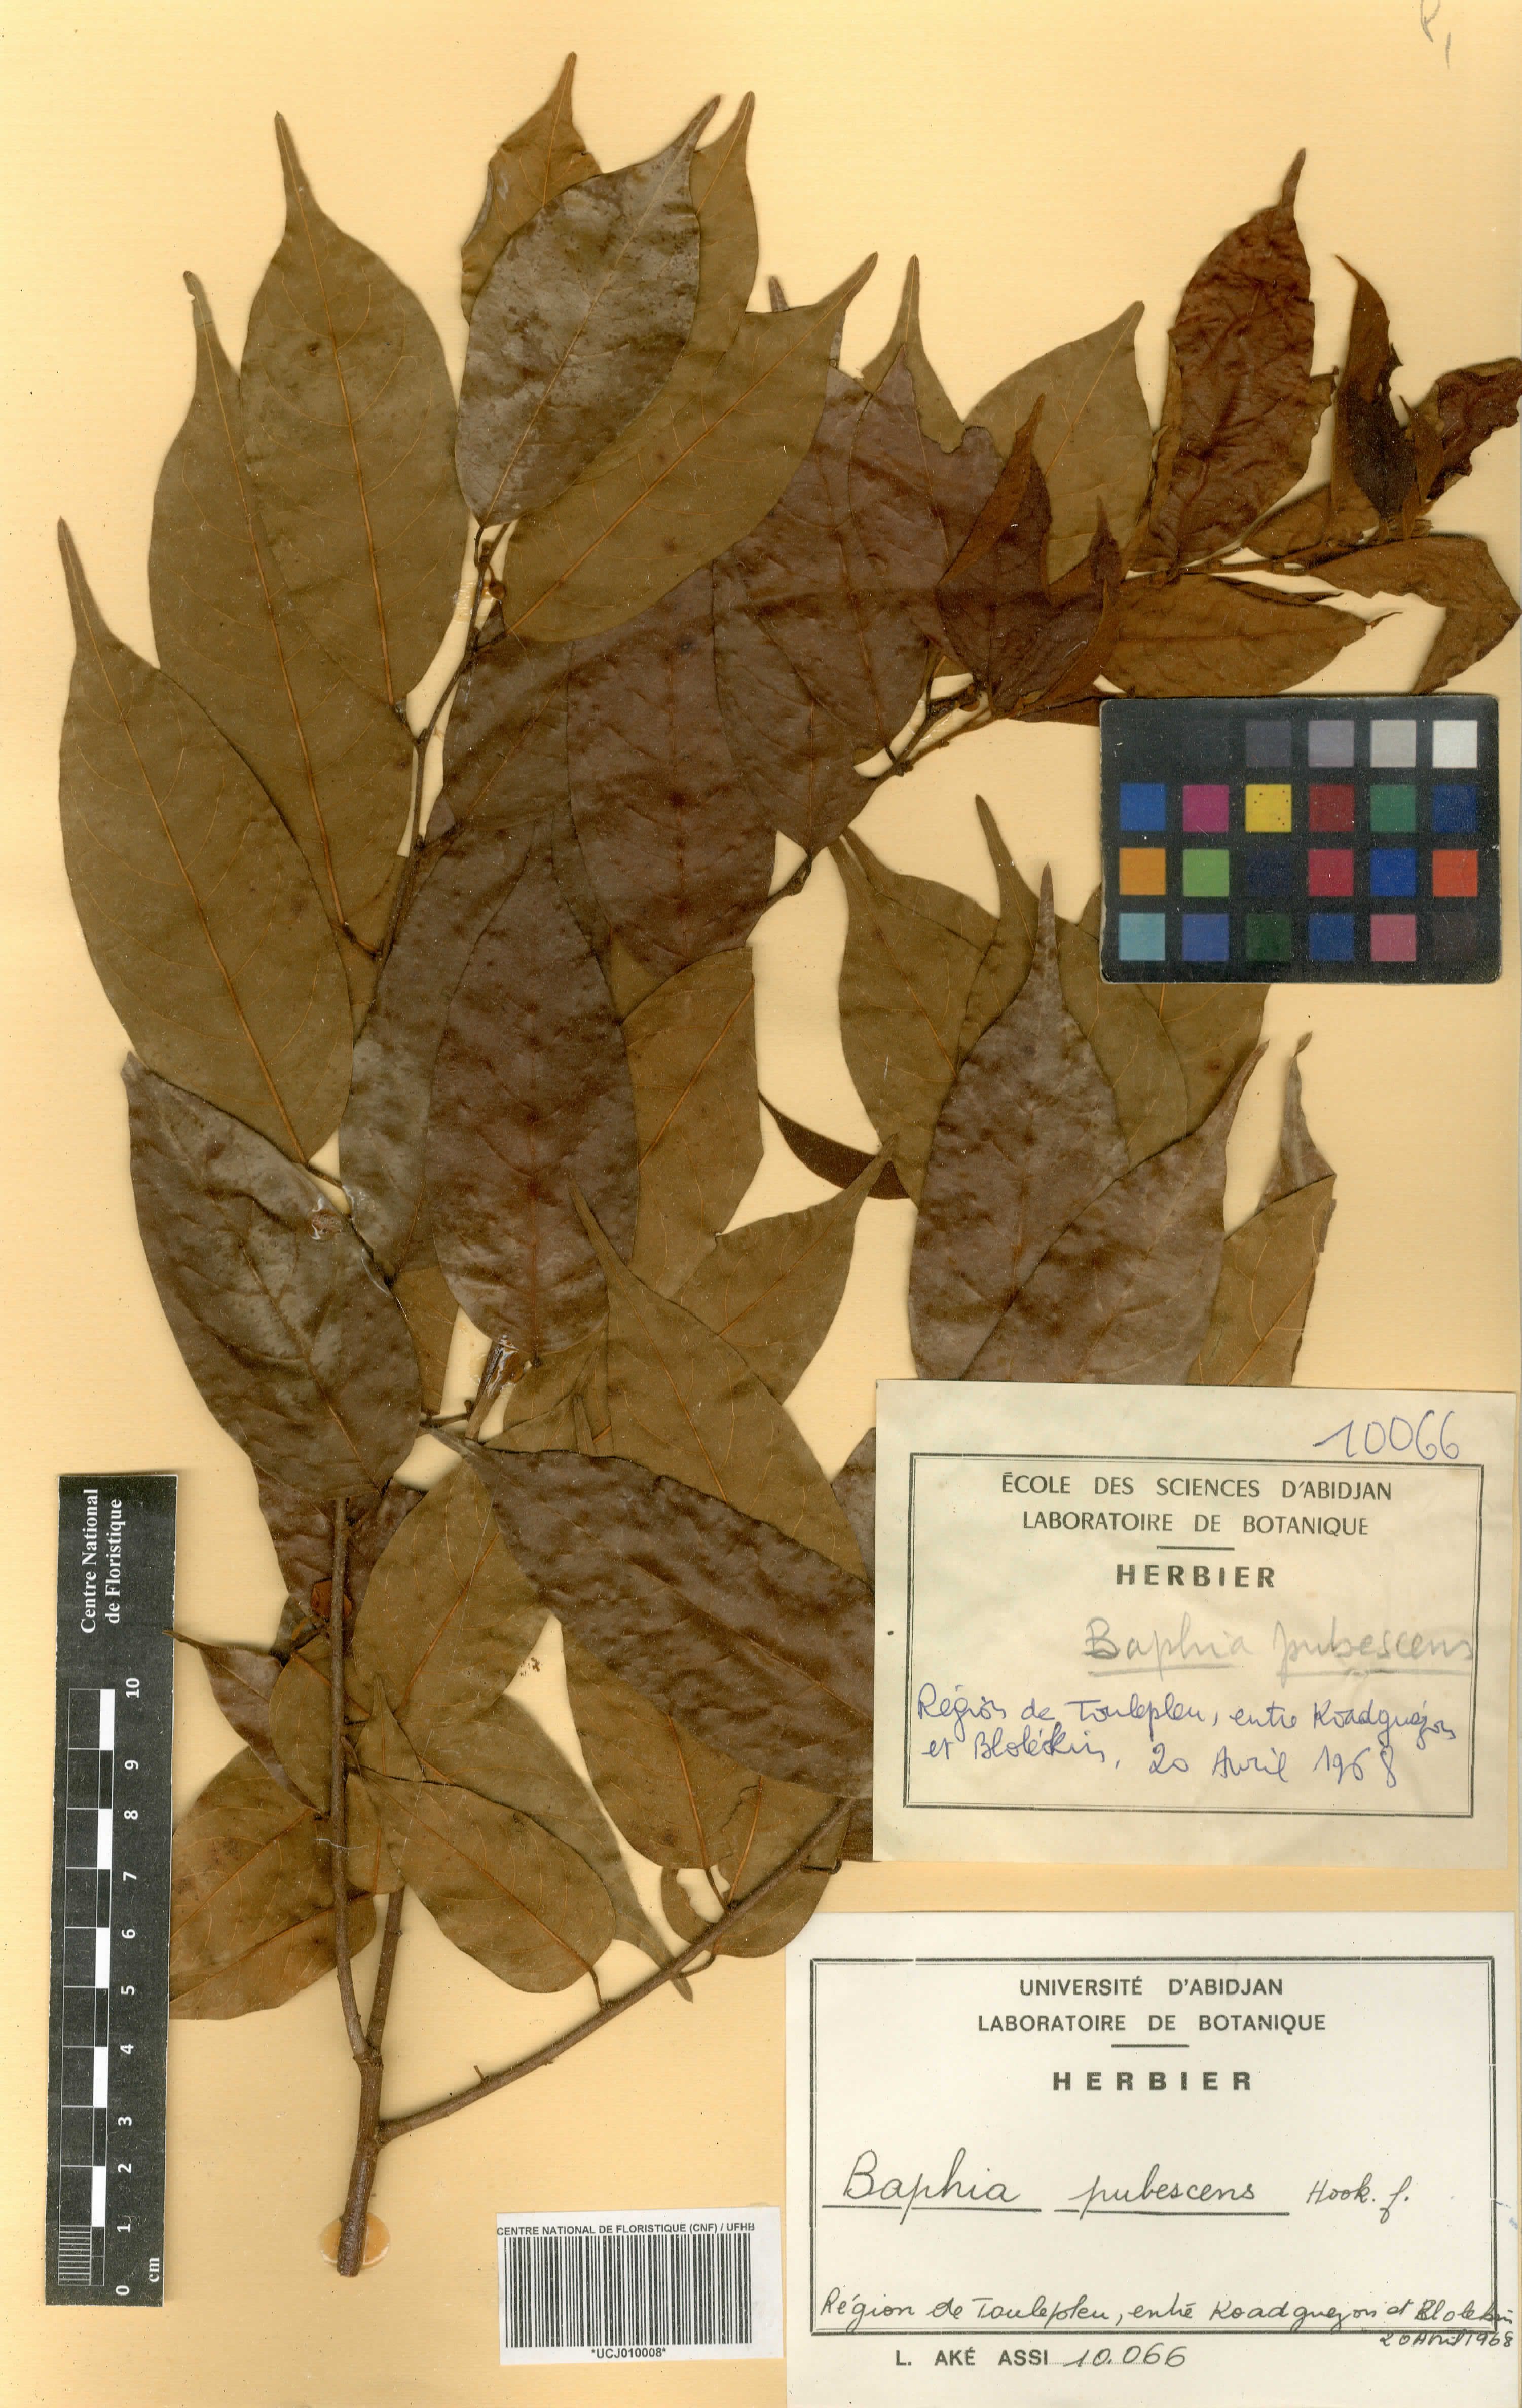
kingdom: Plantae
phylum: Tracheophyta
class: Magnoliopsida
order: Fabales
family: Fabaceae
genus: Baphia
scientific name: Baphia pubescens
